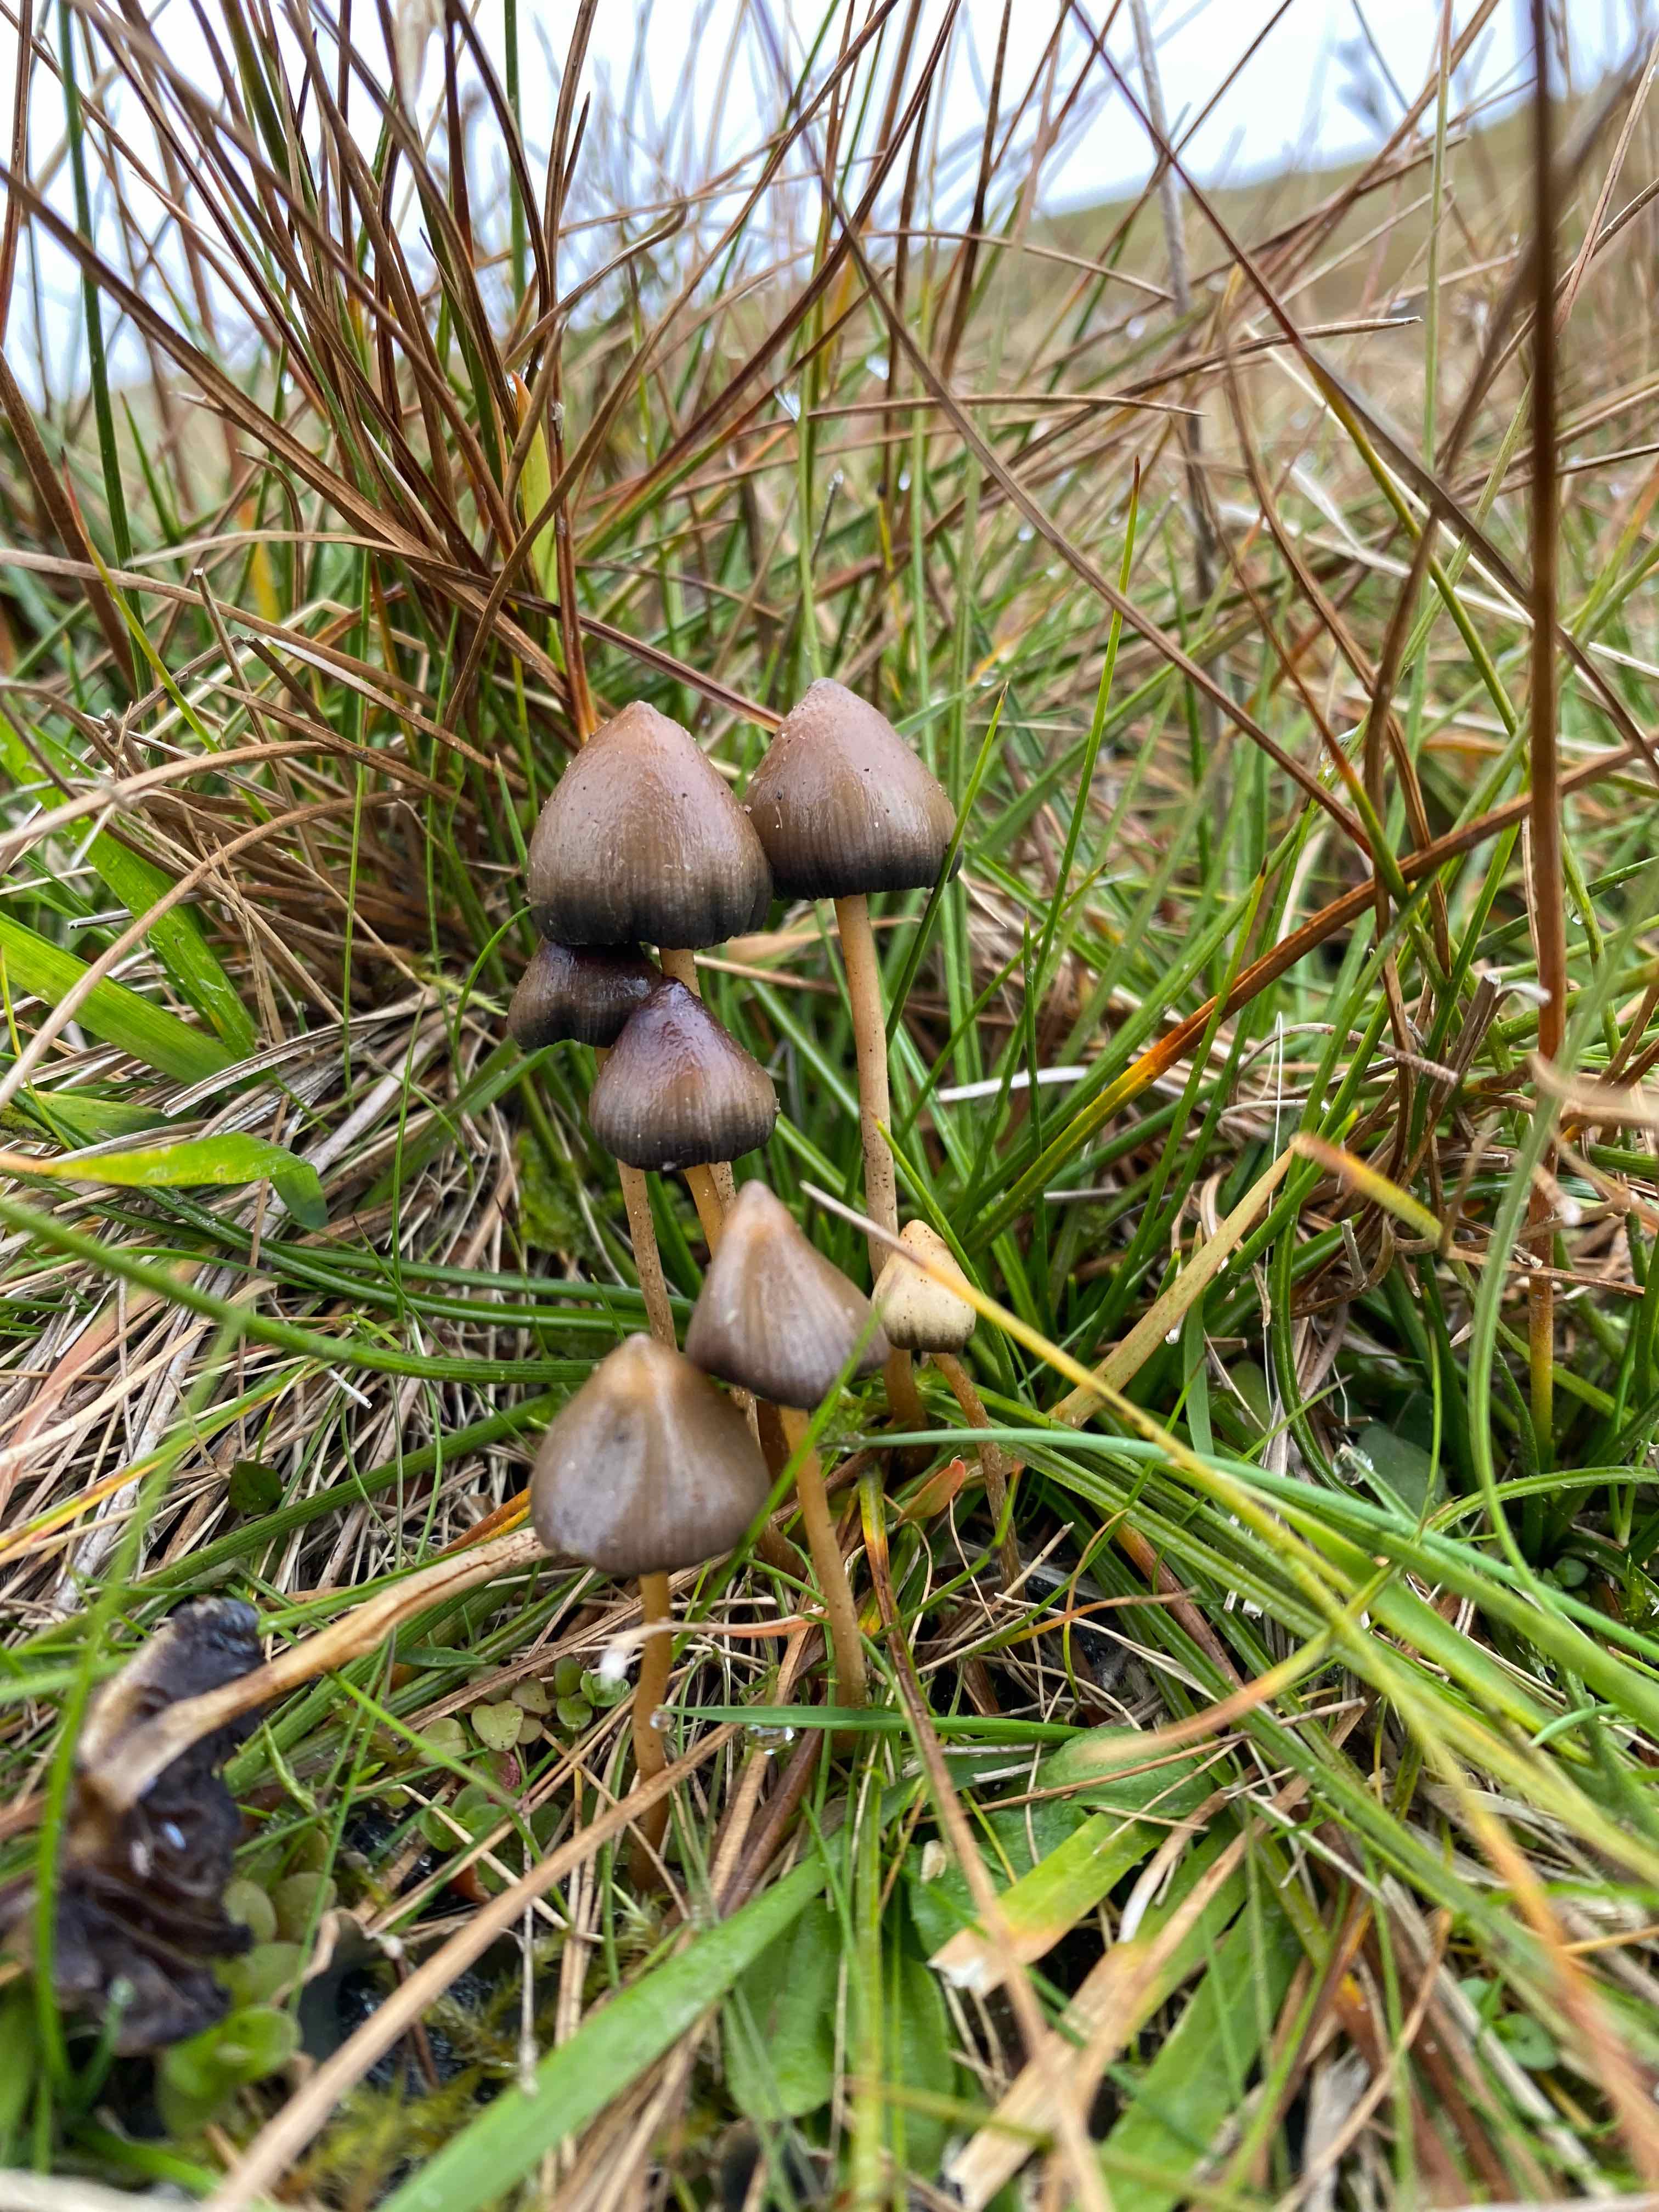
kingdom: Fungi
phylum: Basidiomycota
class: Agaricomycetes
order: Agaricales
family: Hymenogastraceae
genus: Psilocybe
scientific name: Psilocybe semilanceata
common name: spids nøgenhat
